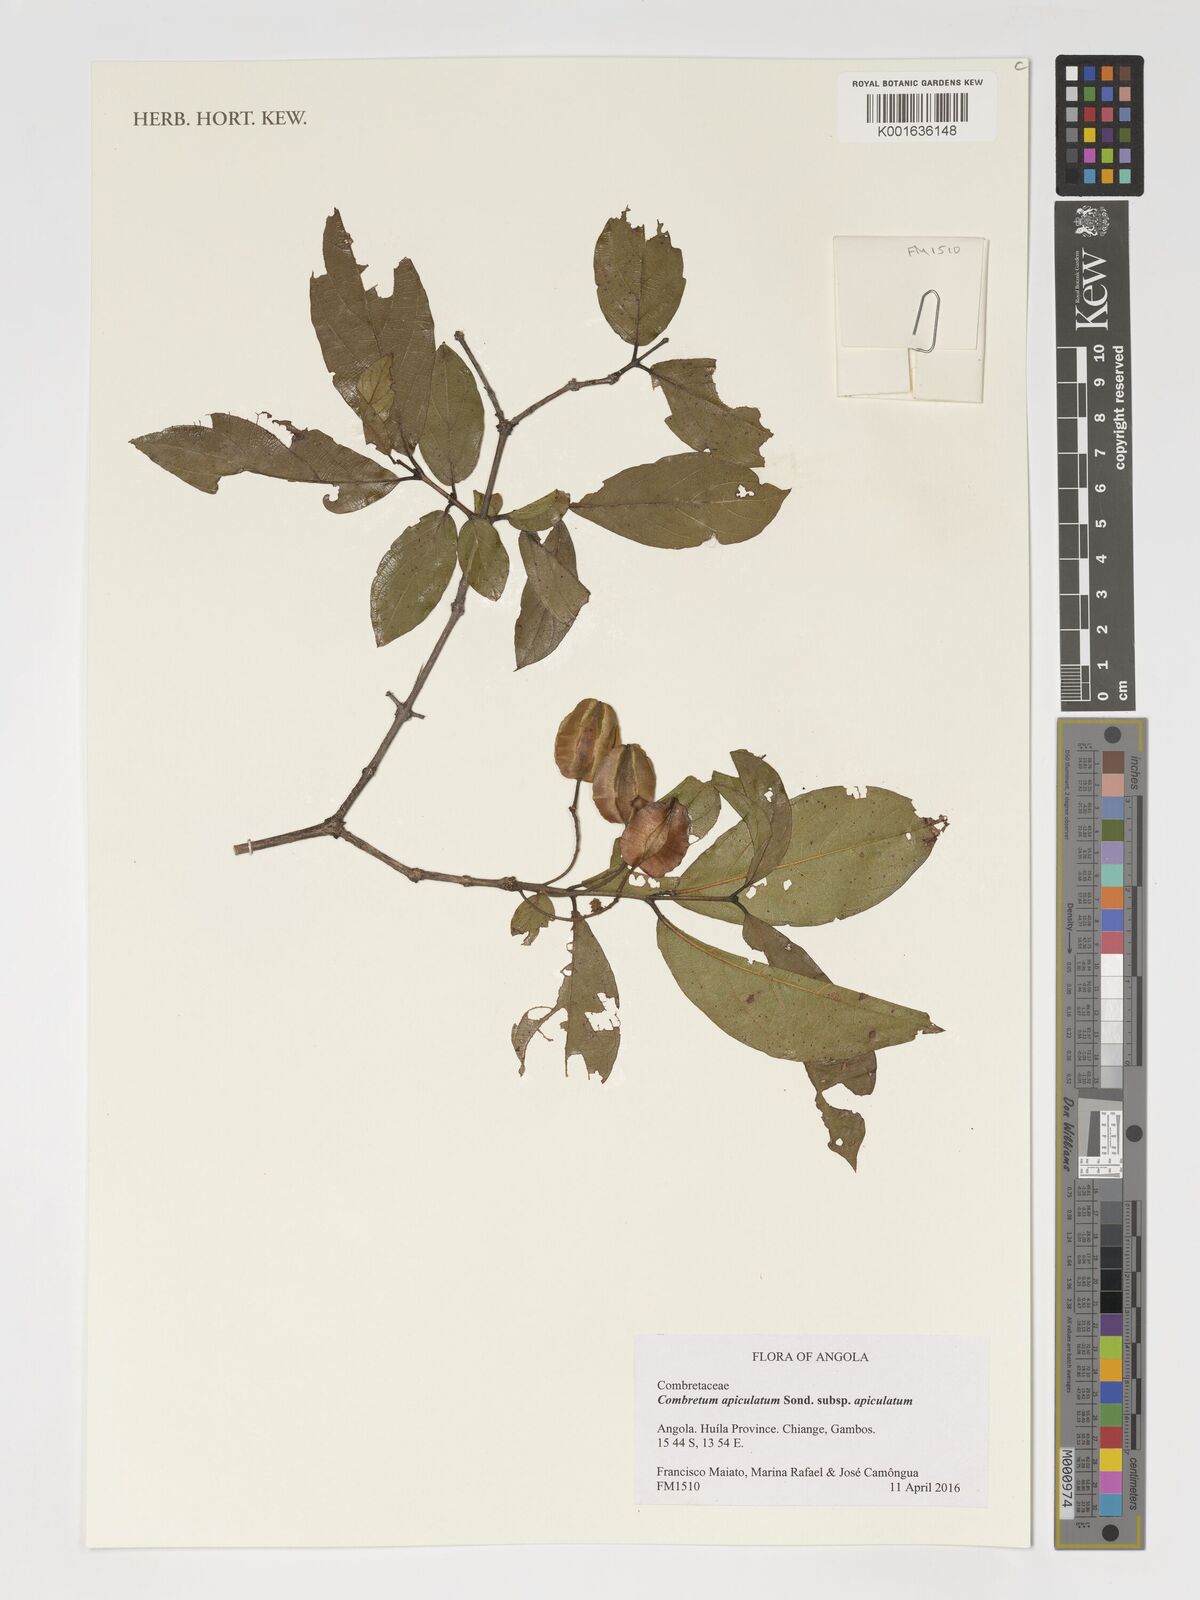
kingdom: Plantae
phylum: Tracheophyta
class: Magnoliopsida
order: Myrtales
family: Combretaceae
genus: Combretum
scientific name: Combretum apiculatum
